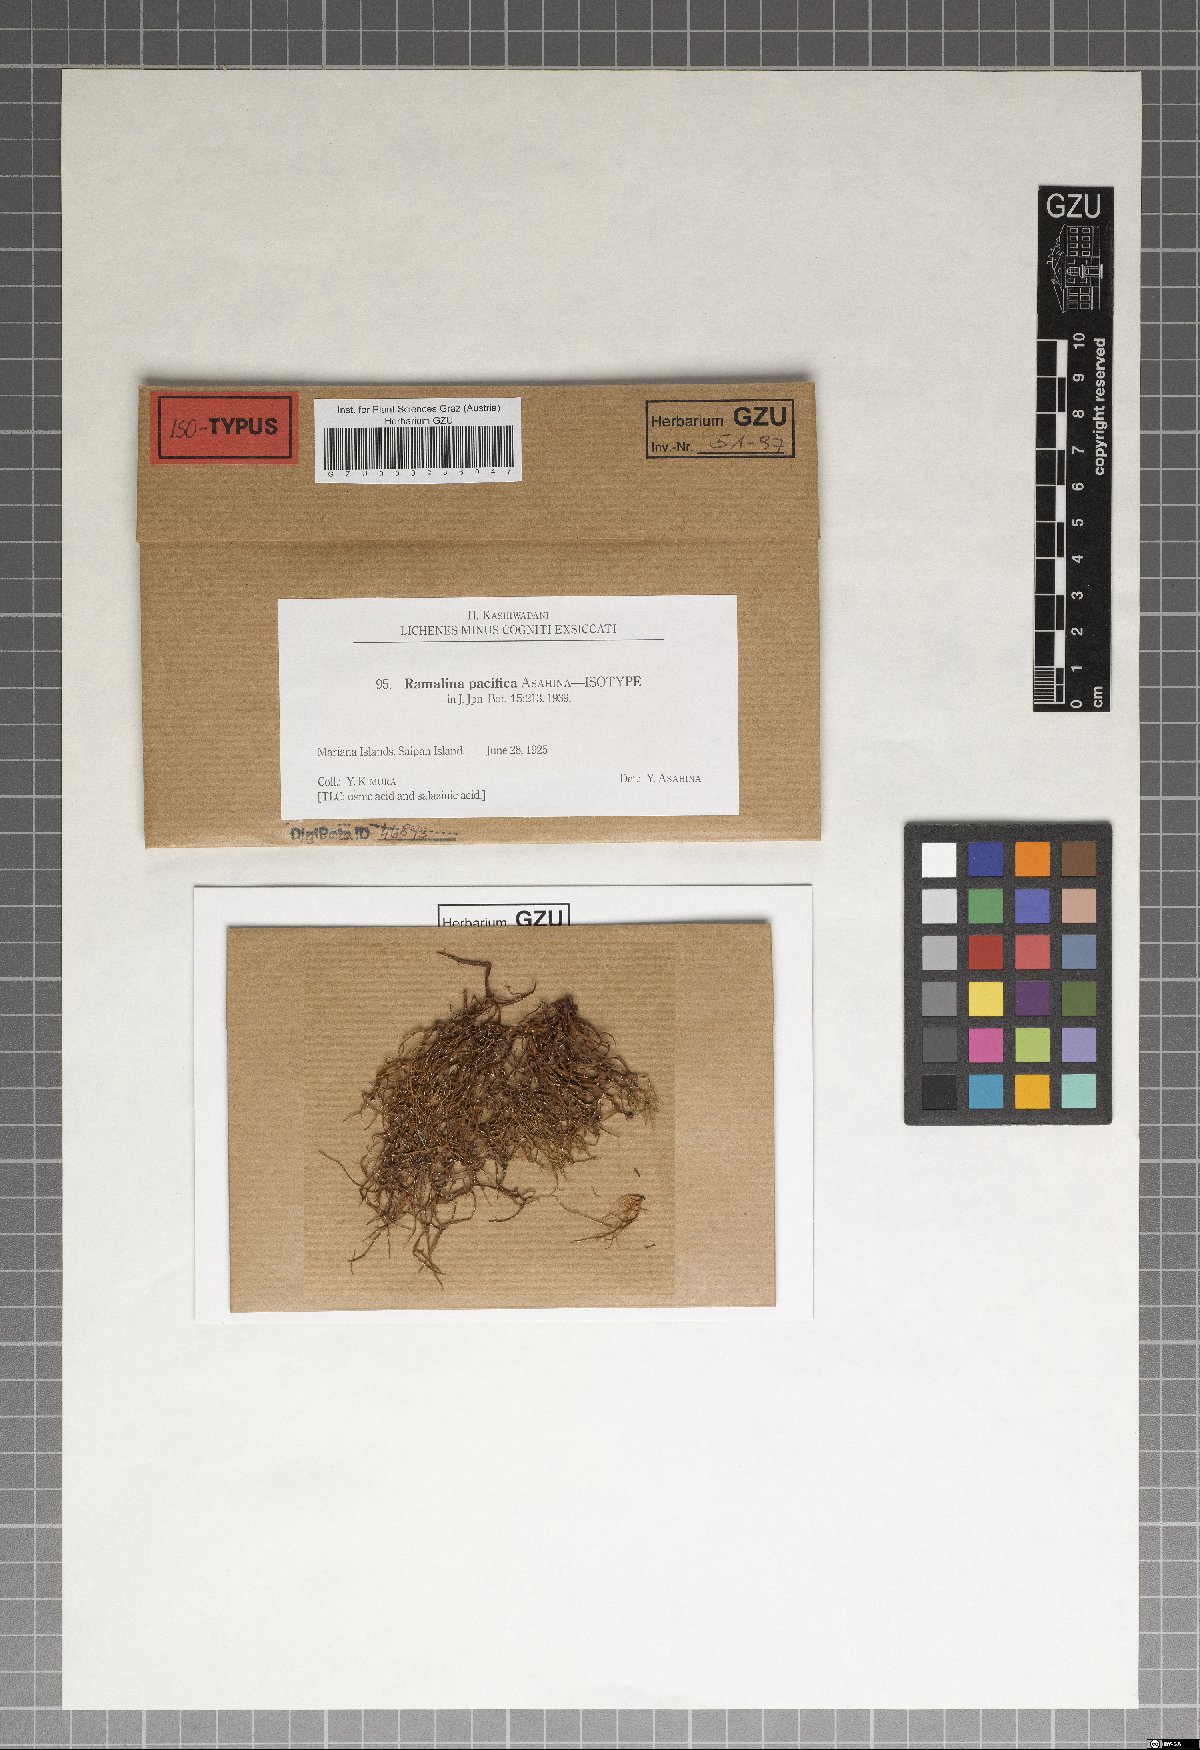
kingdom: Fungi
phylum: Ascomycota
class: Lecanoromycetes
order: Lecanorales
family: Ramalinaceae
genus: Ramalina
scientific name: Ramalina pacifica
